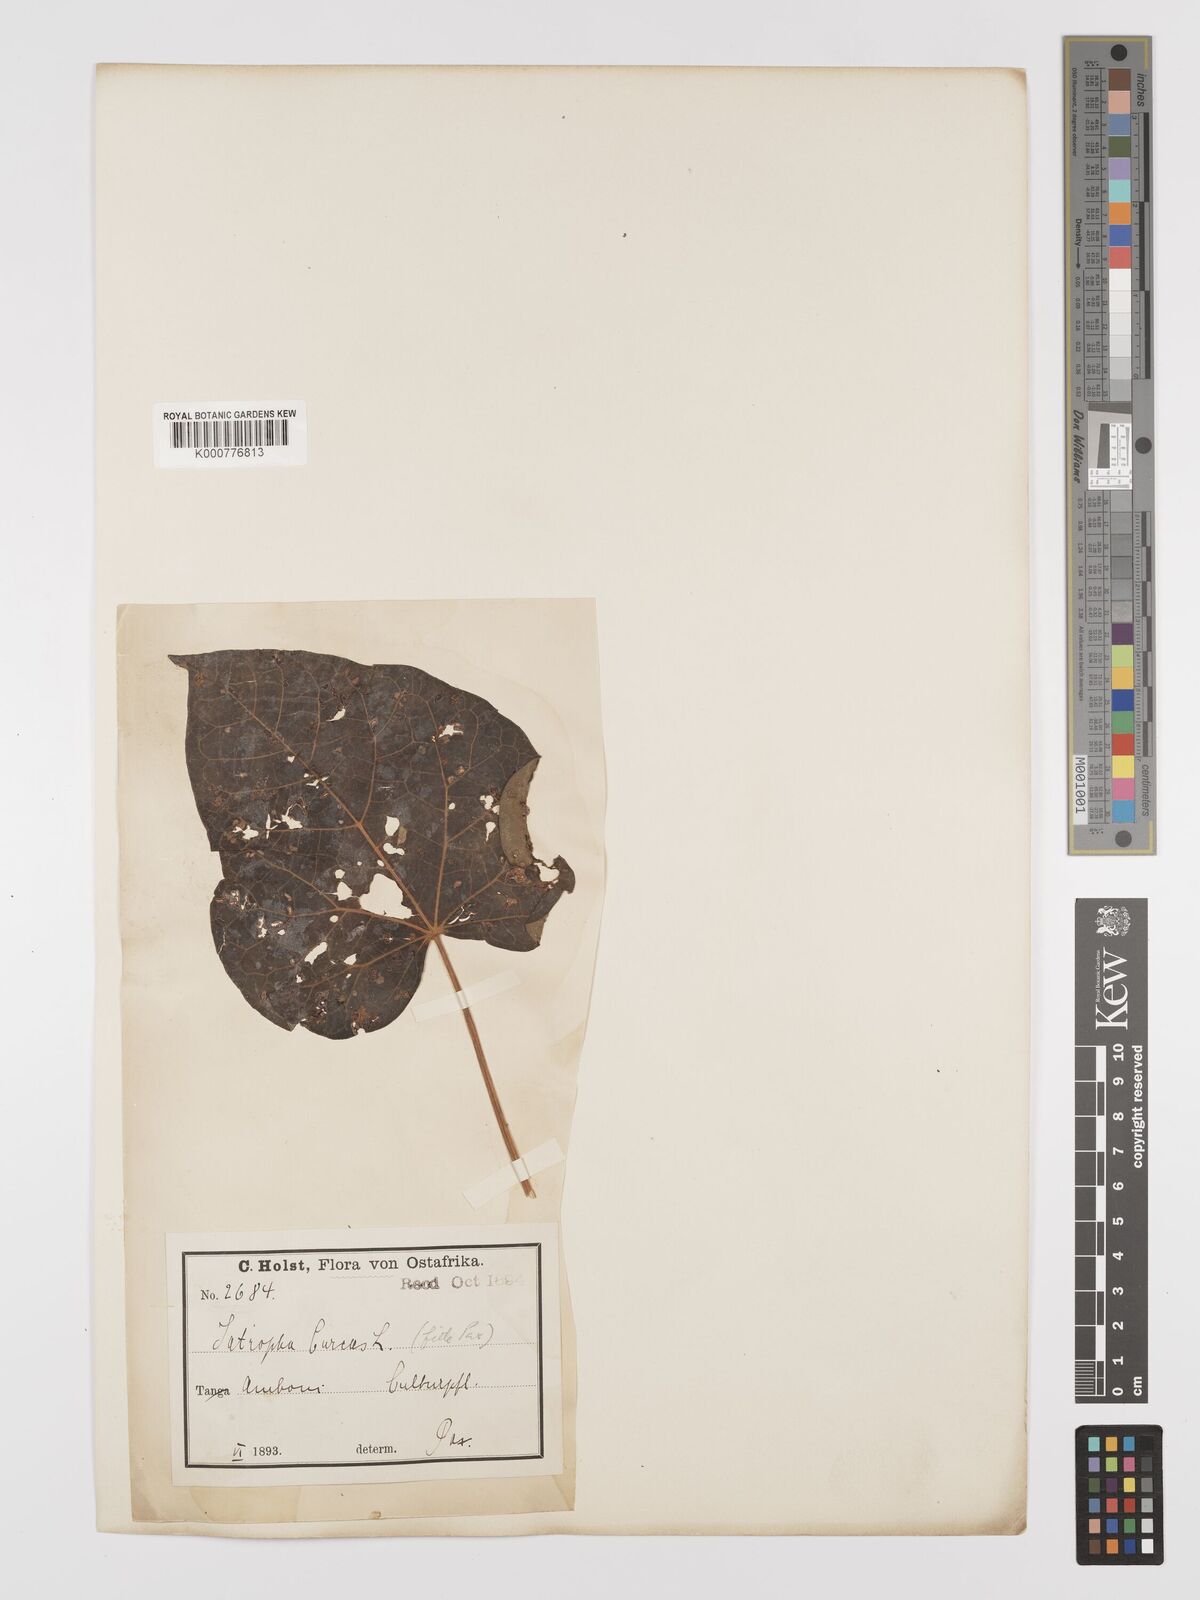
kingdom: Plantae
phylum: Tracheophyta
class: Magnoliopsida
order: Malpighiales
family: Euphorbiaceae
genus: Jatropha
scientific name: Jatropha curcas
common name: Barbados nut
